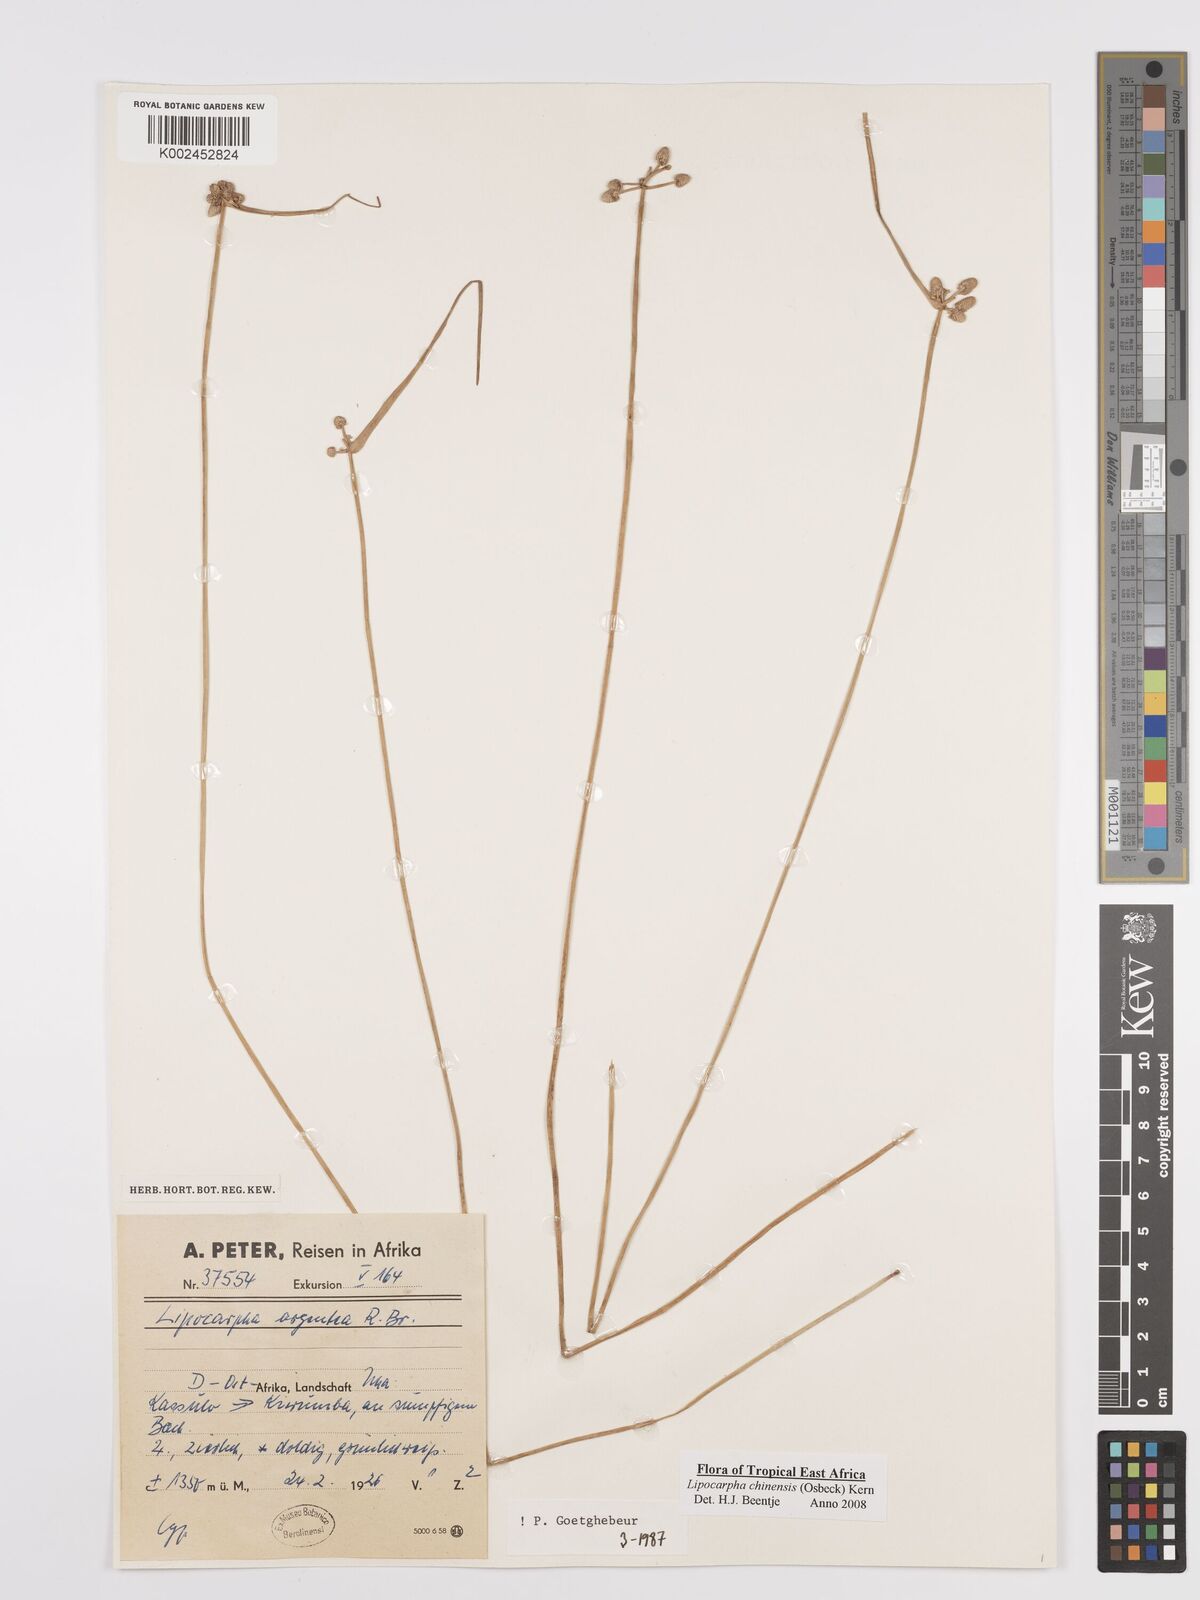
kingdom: Plantae
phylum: Tracheophyta
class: Liliopsida
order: Poales
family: Cyperaceae
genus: Cyperus
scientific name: Cyperus
